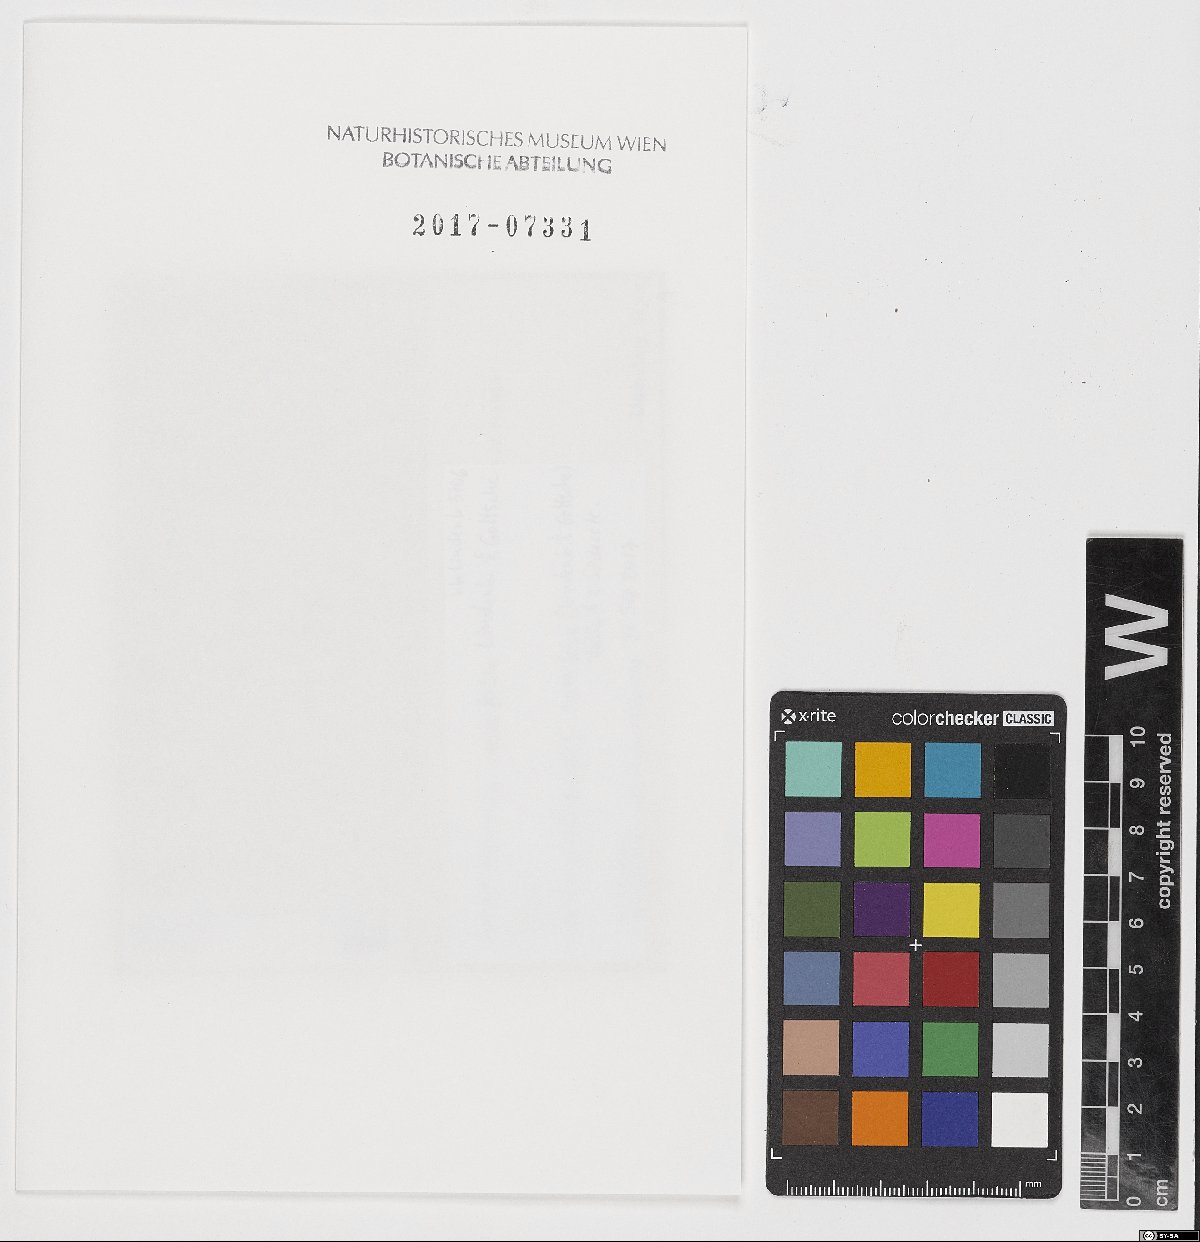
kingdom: Plantae
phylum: Marchantiophyta
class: Jungermanniopsida
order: Jungermanniales
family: Cephaloziaceae
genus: Fuscocephaloziopsis
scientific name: Fuscocephaloziopsis crassifolia
